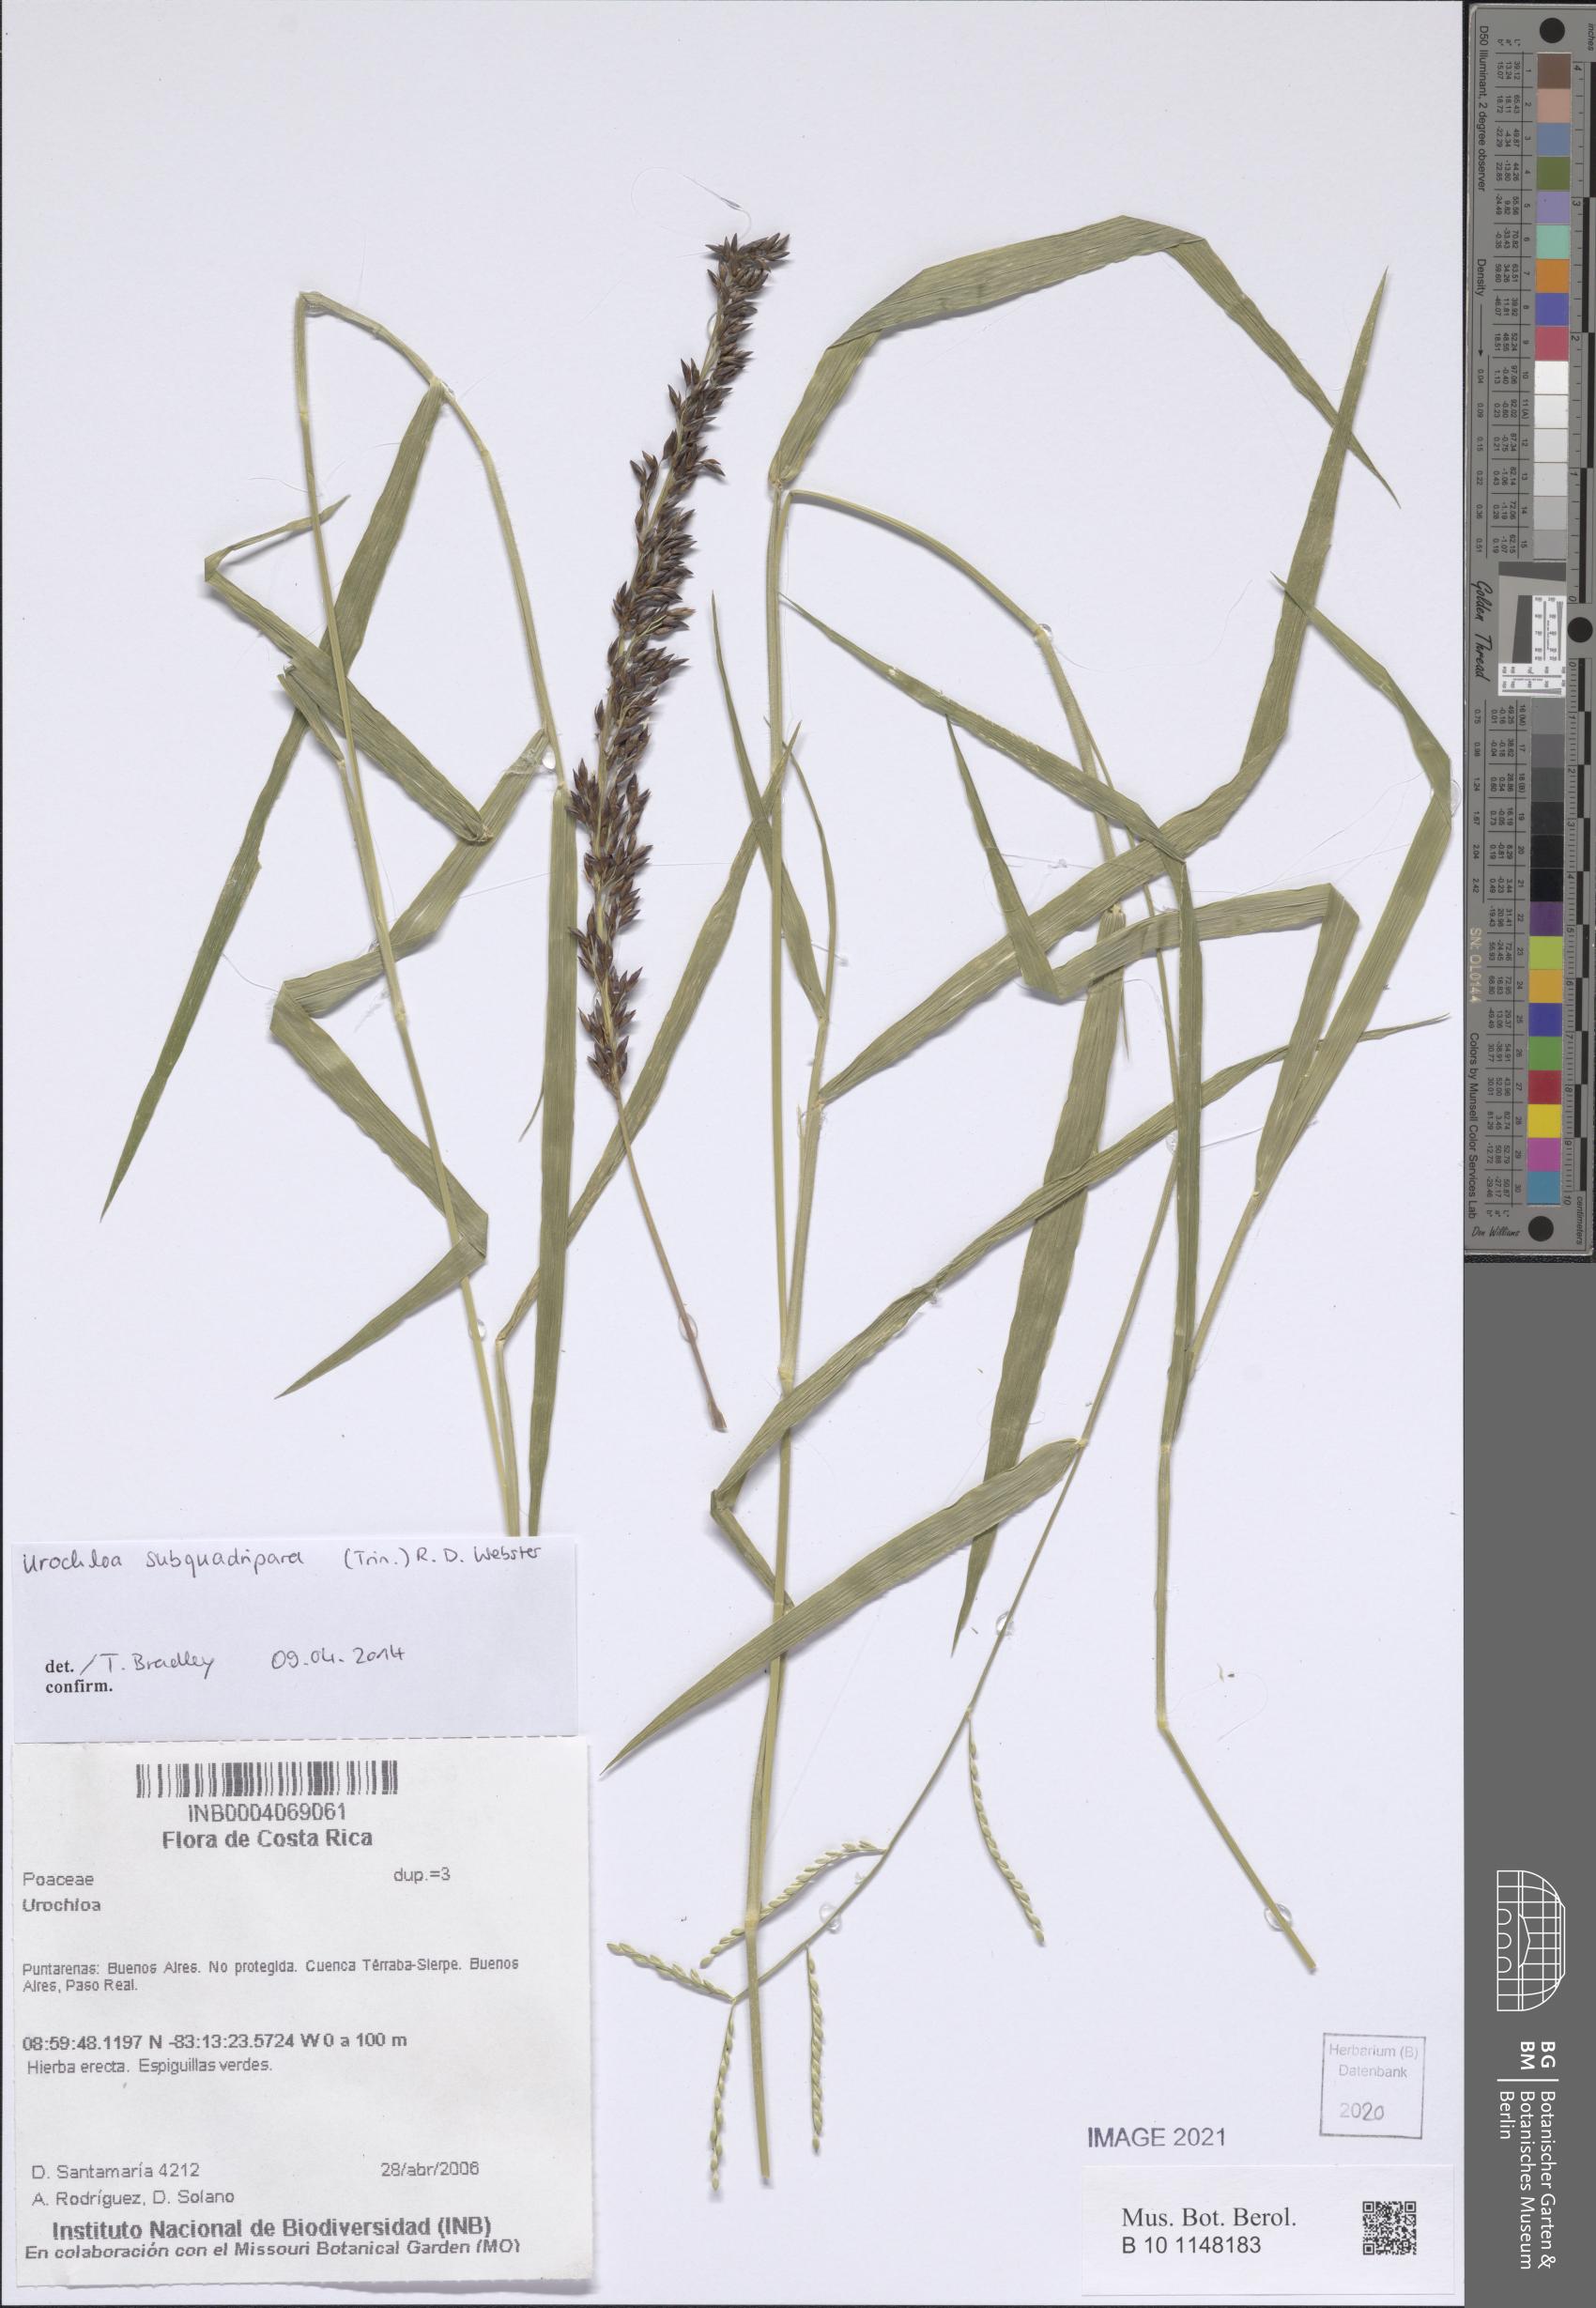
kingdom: Plantae
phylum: Tracheophyta
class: Liliopsida
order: Poales
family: Poaceae
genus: Urochloa
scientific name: Urochloa subquadripara
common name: Armgrass millet
